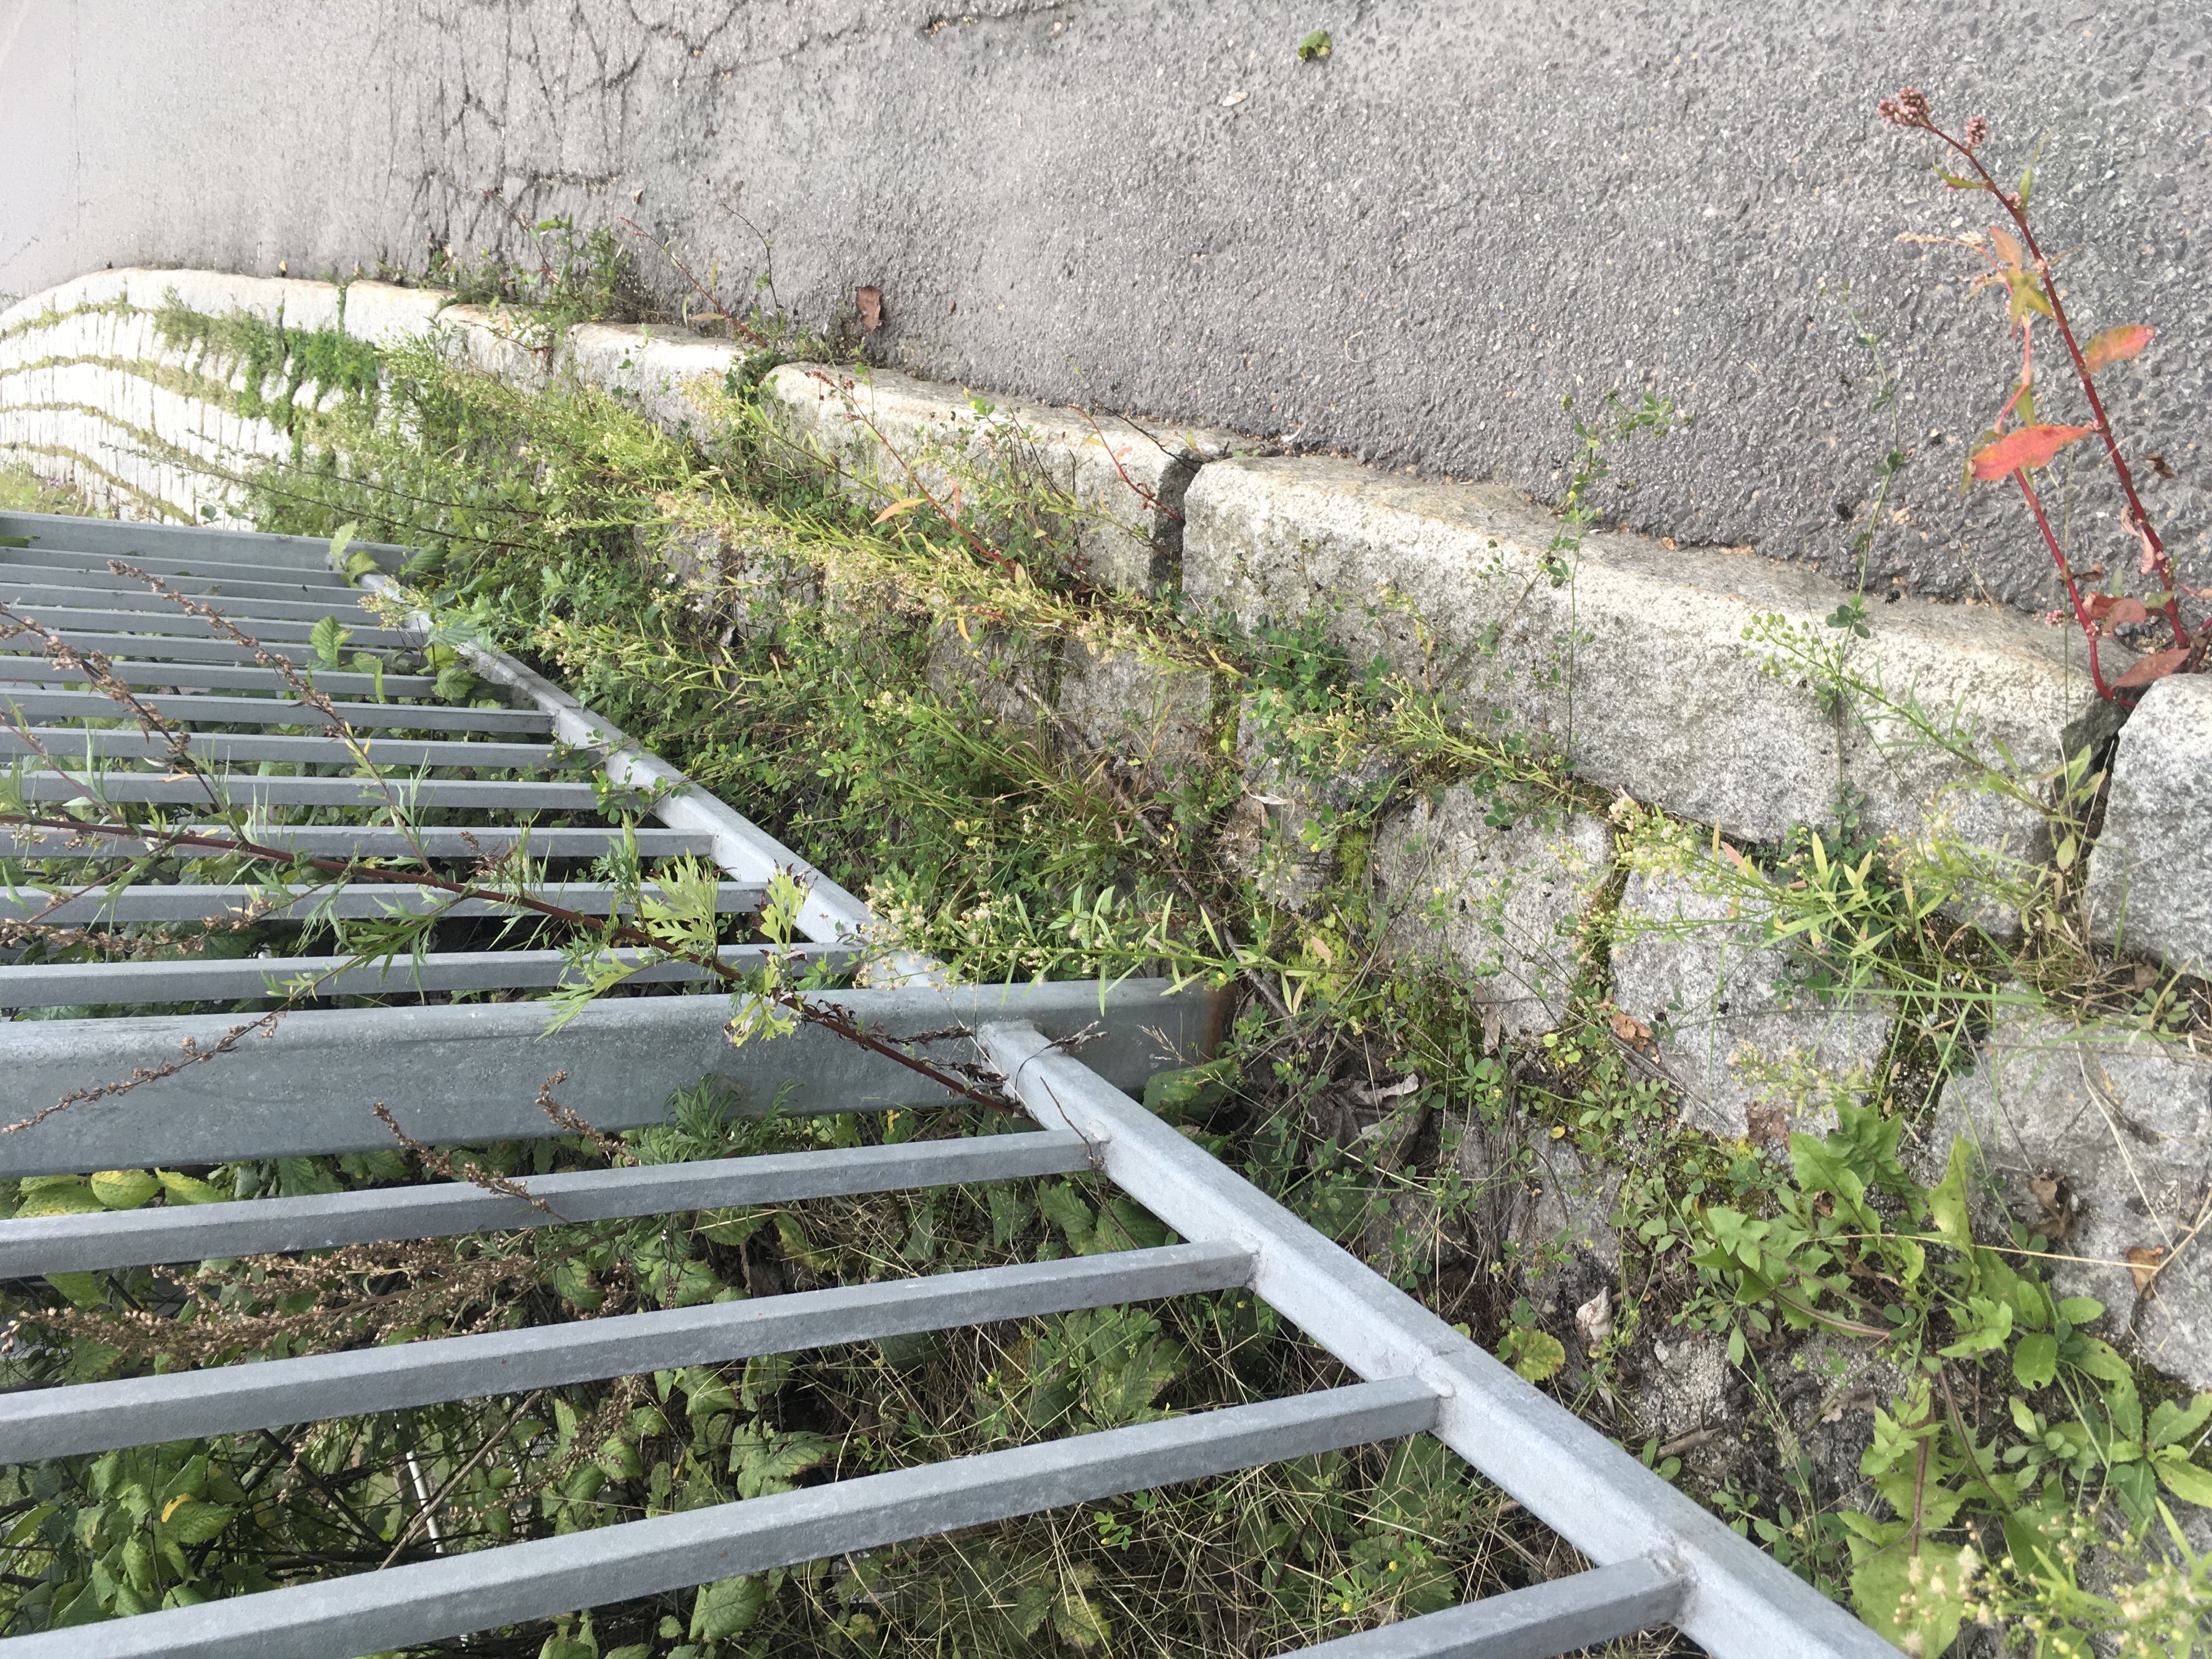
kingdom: Plantae
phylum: Tracheophyta
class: Magnoliopsida
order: Asterales
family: Asteraceae
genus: Erigeron
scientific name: Erigeron canadensis
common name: hestehamp
